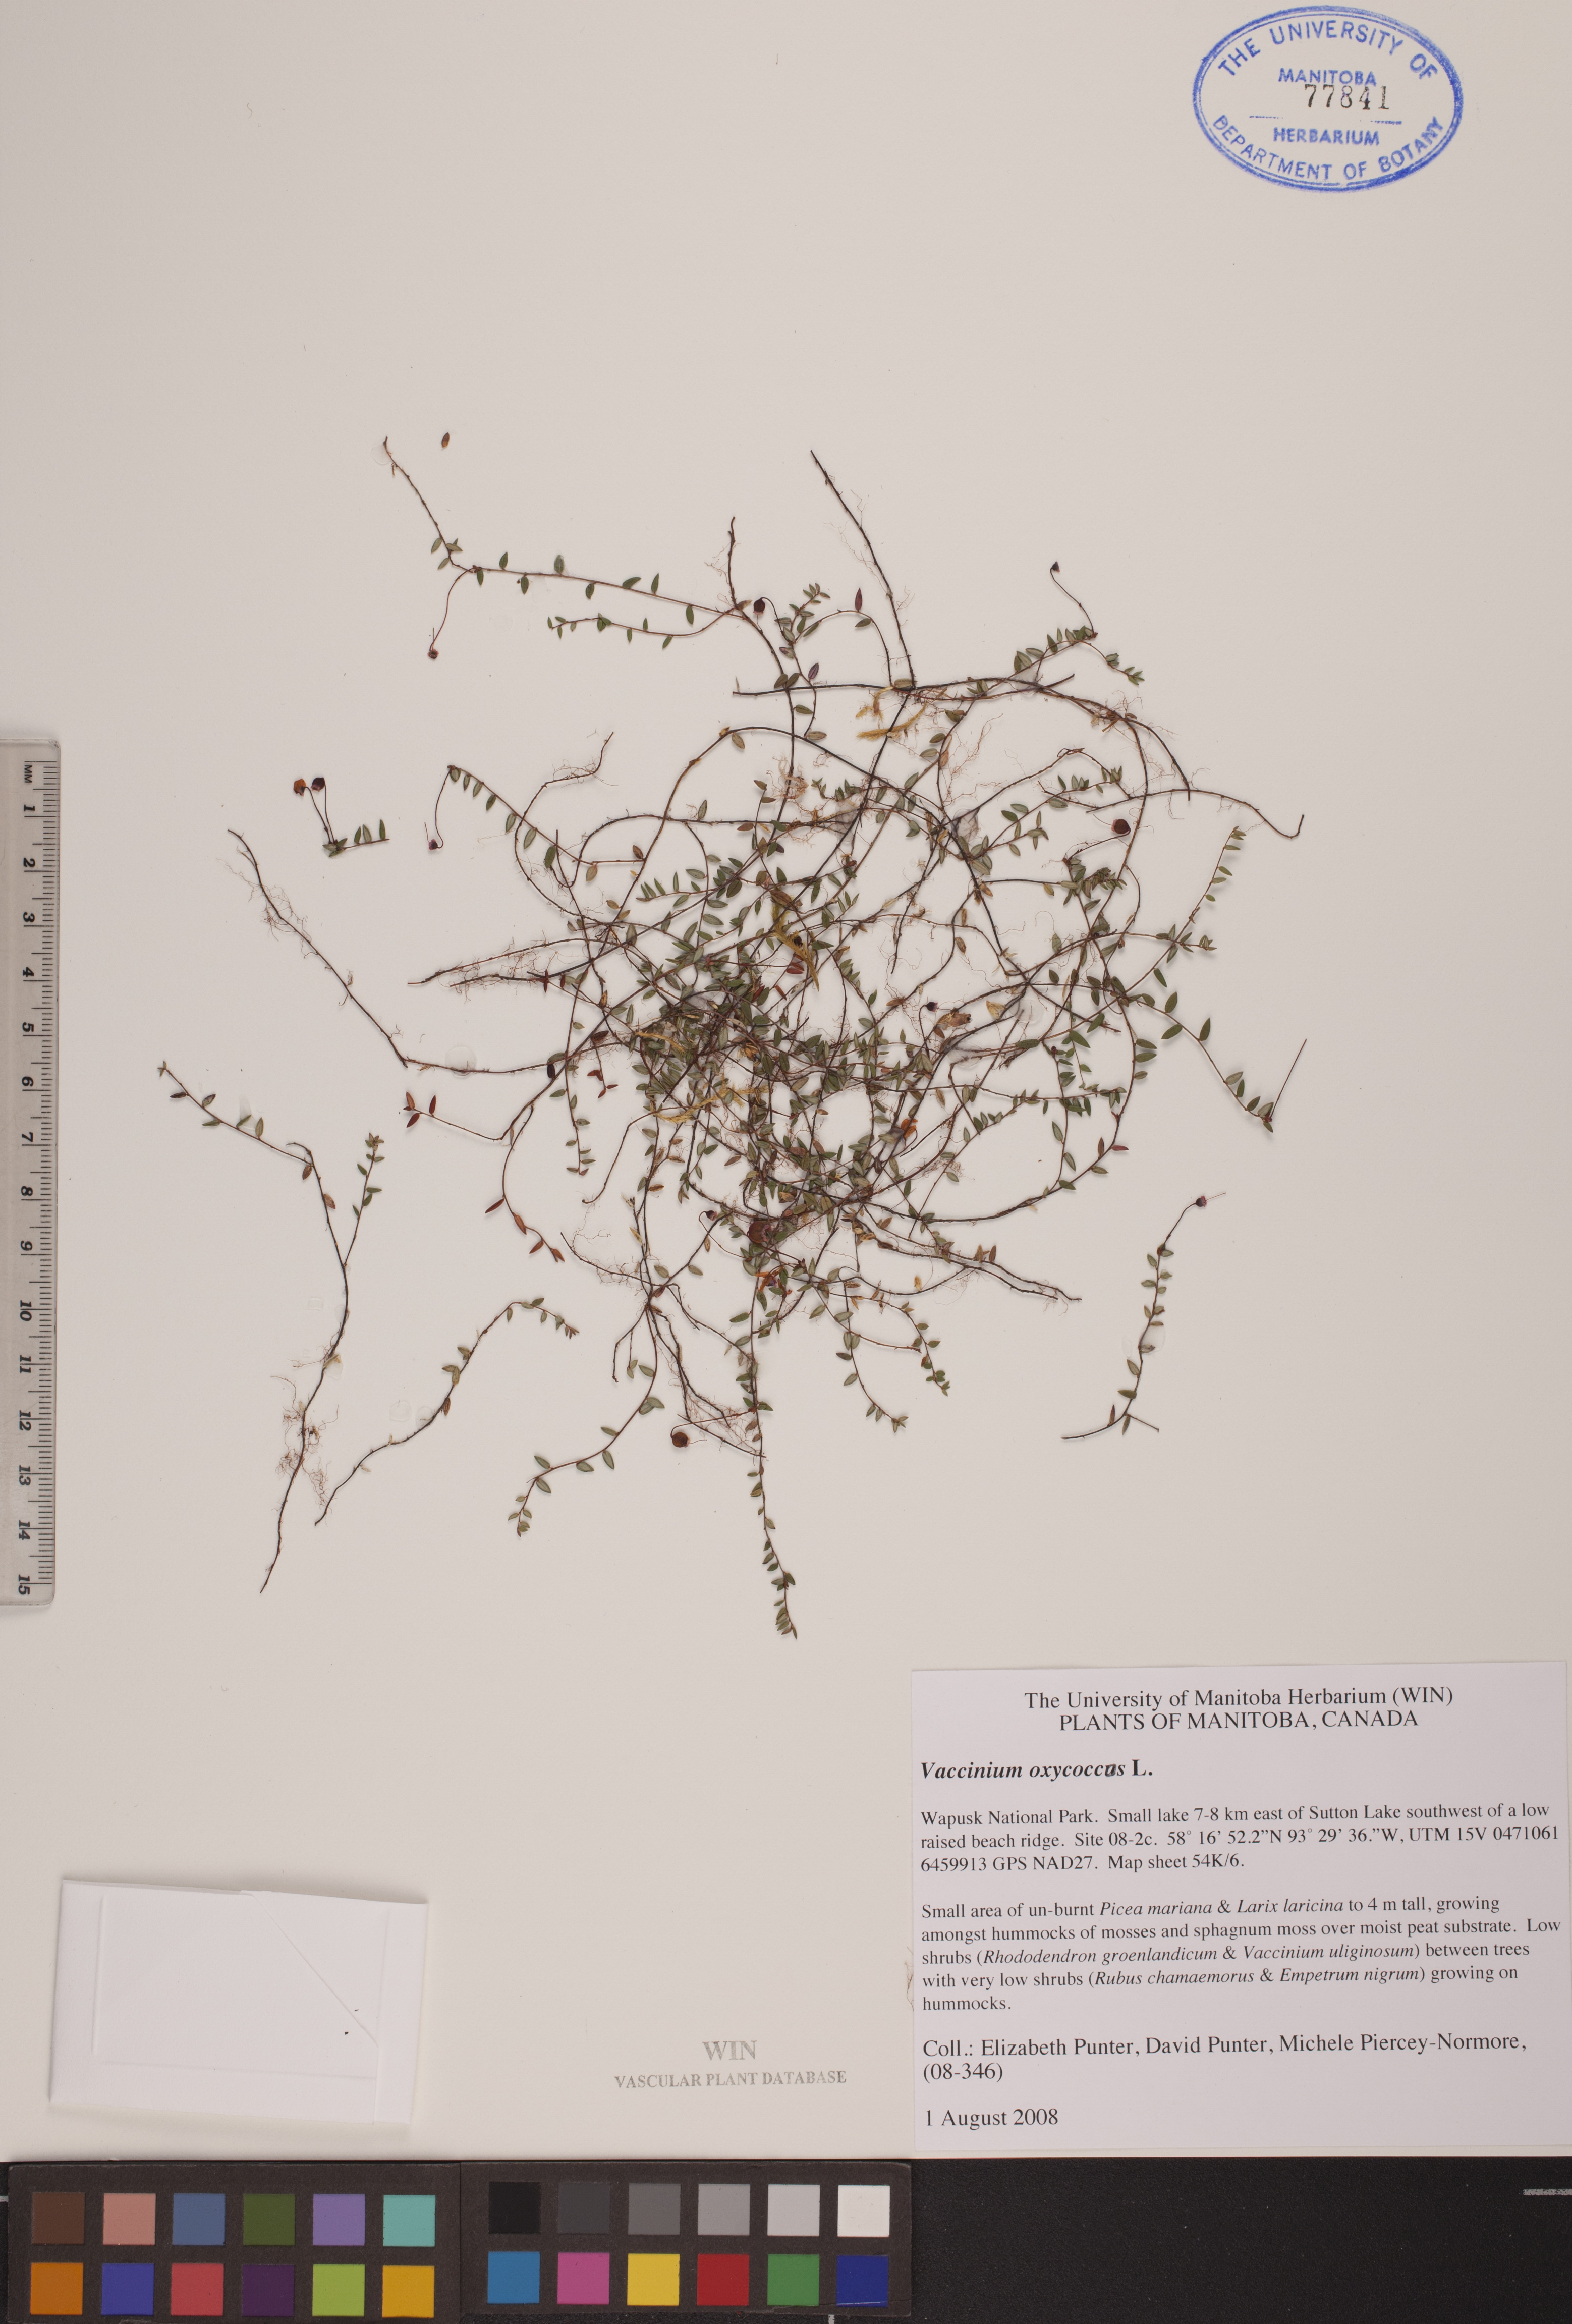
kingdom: Plantae
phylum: Tracheophyta
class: Magnoliopsida
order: Ericales
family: Ericaceae
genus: Vaccinium
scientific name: Vaccinium oxycoccos
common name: Cranberry
